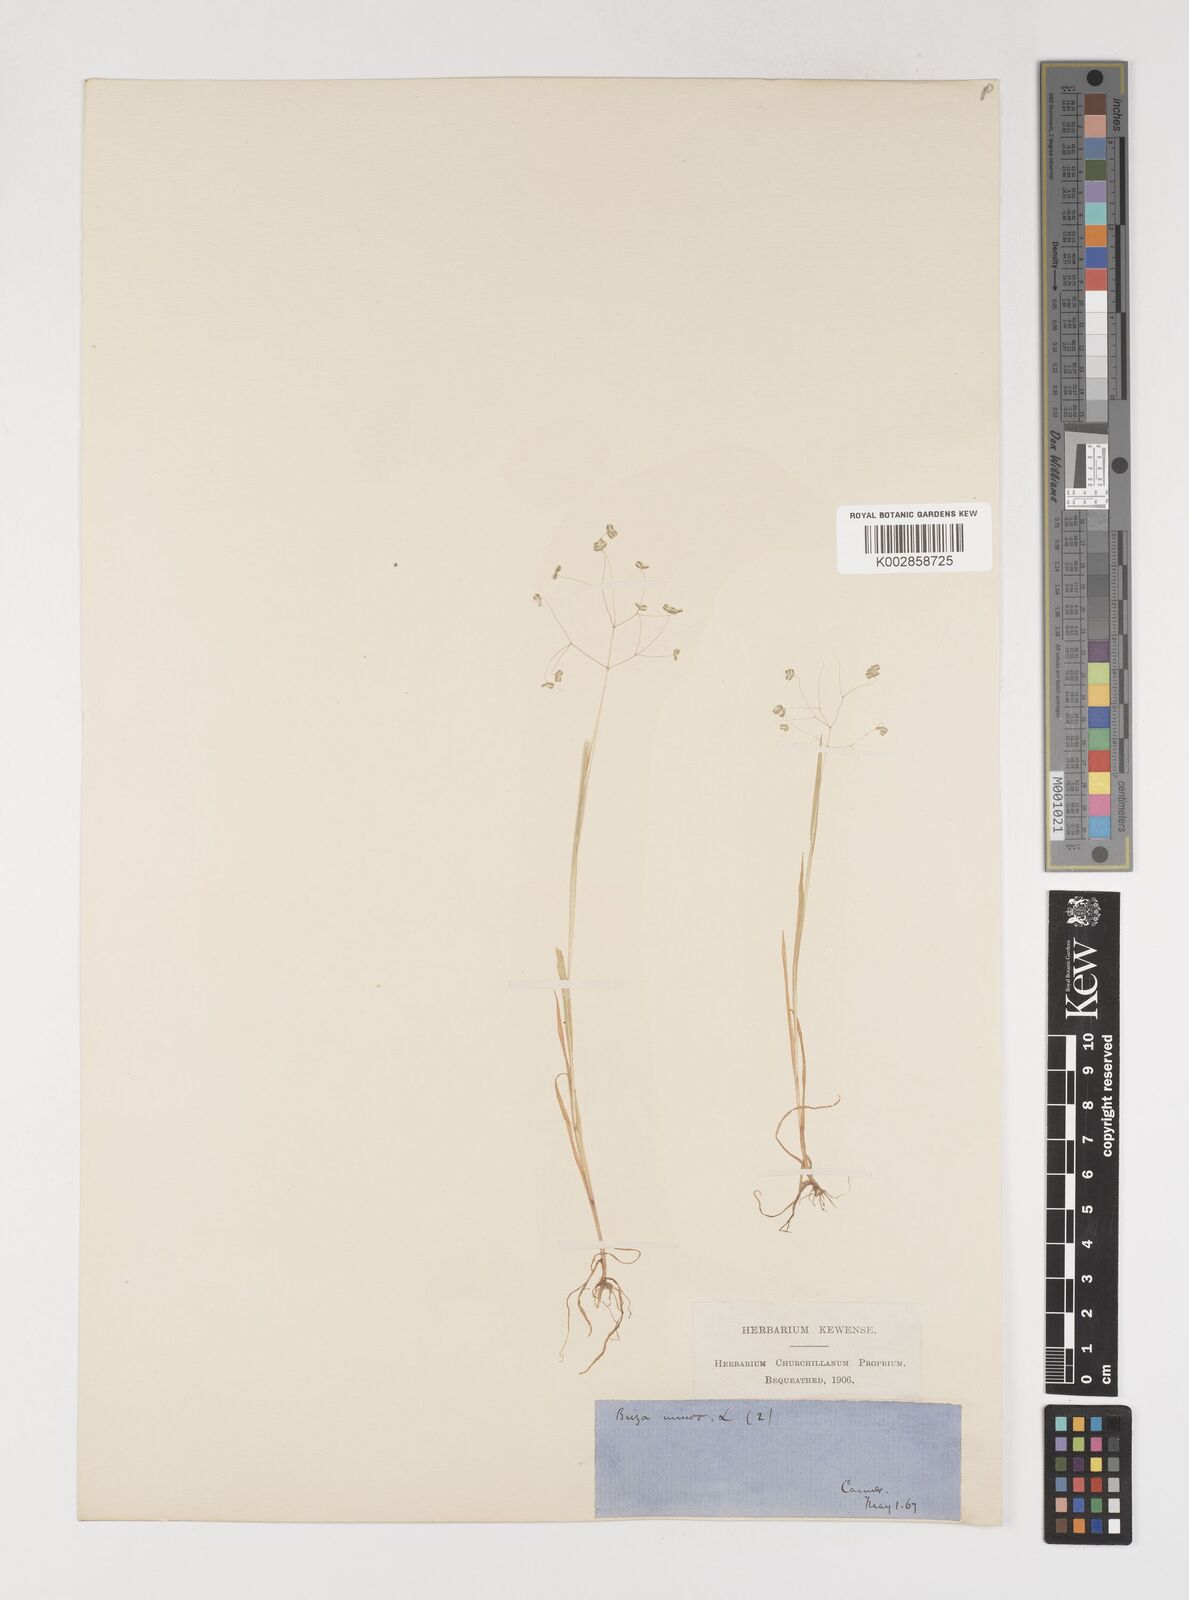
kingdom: Plantae
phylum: Tracheophyta
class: Liliopsida
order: Poales
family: Poaceae
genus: Briza
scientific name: Briza minor
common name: Lesser quaking-grass
